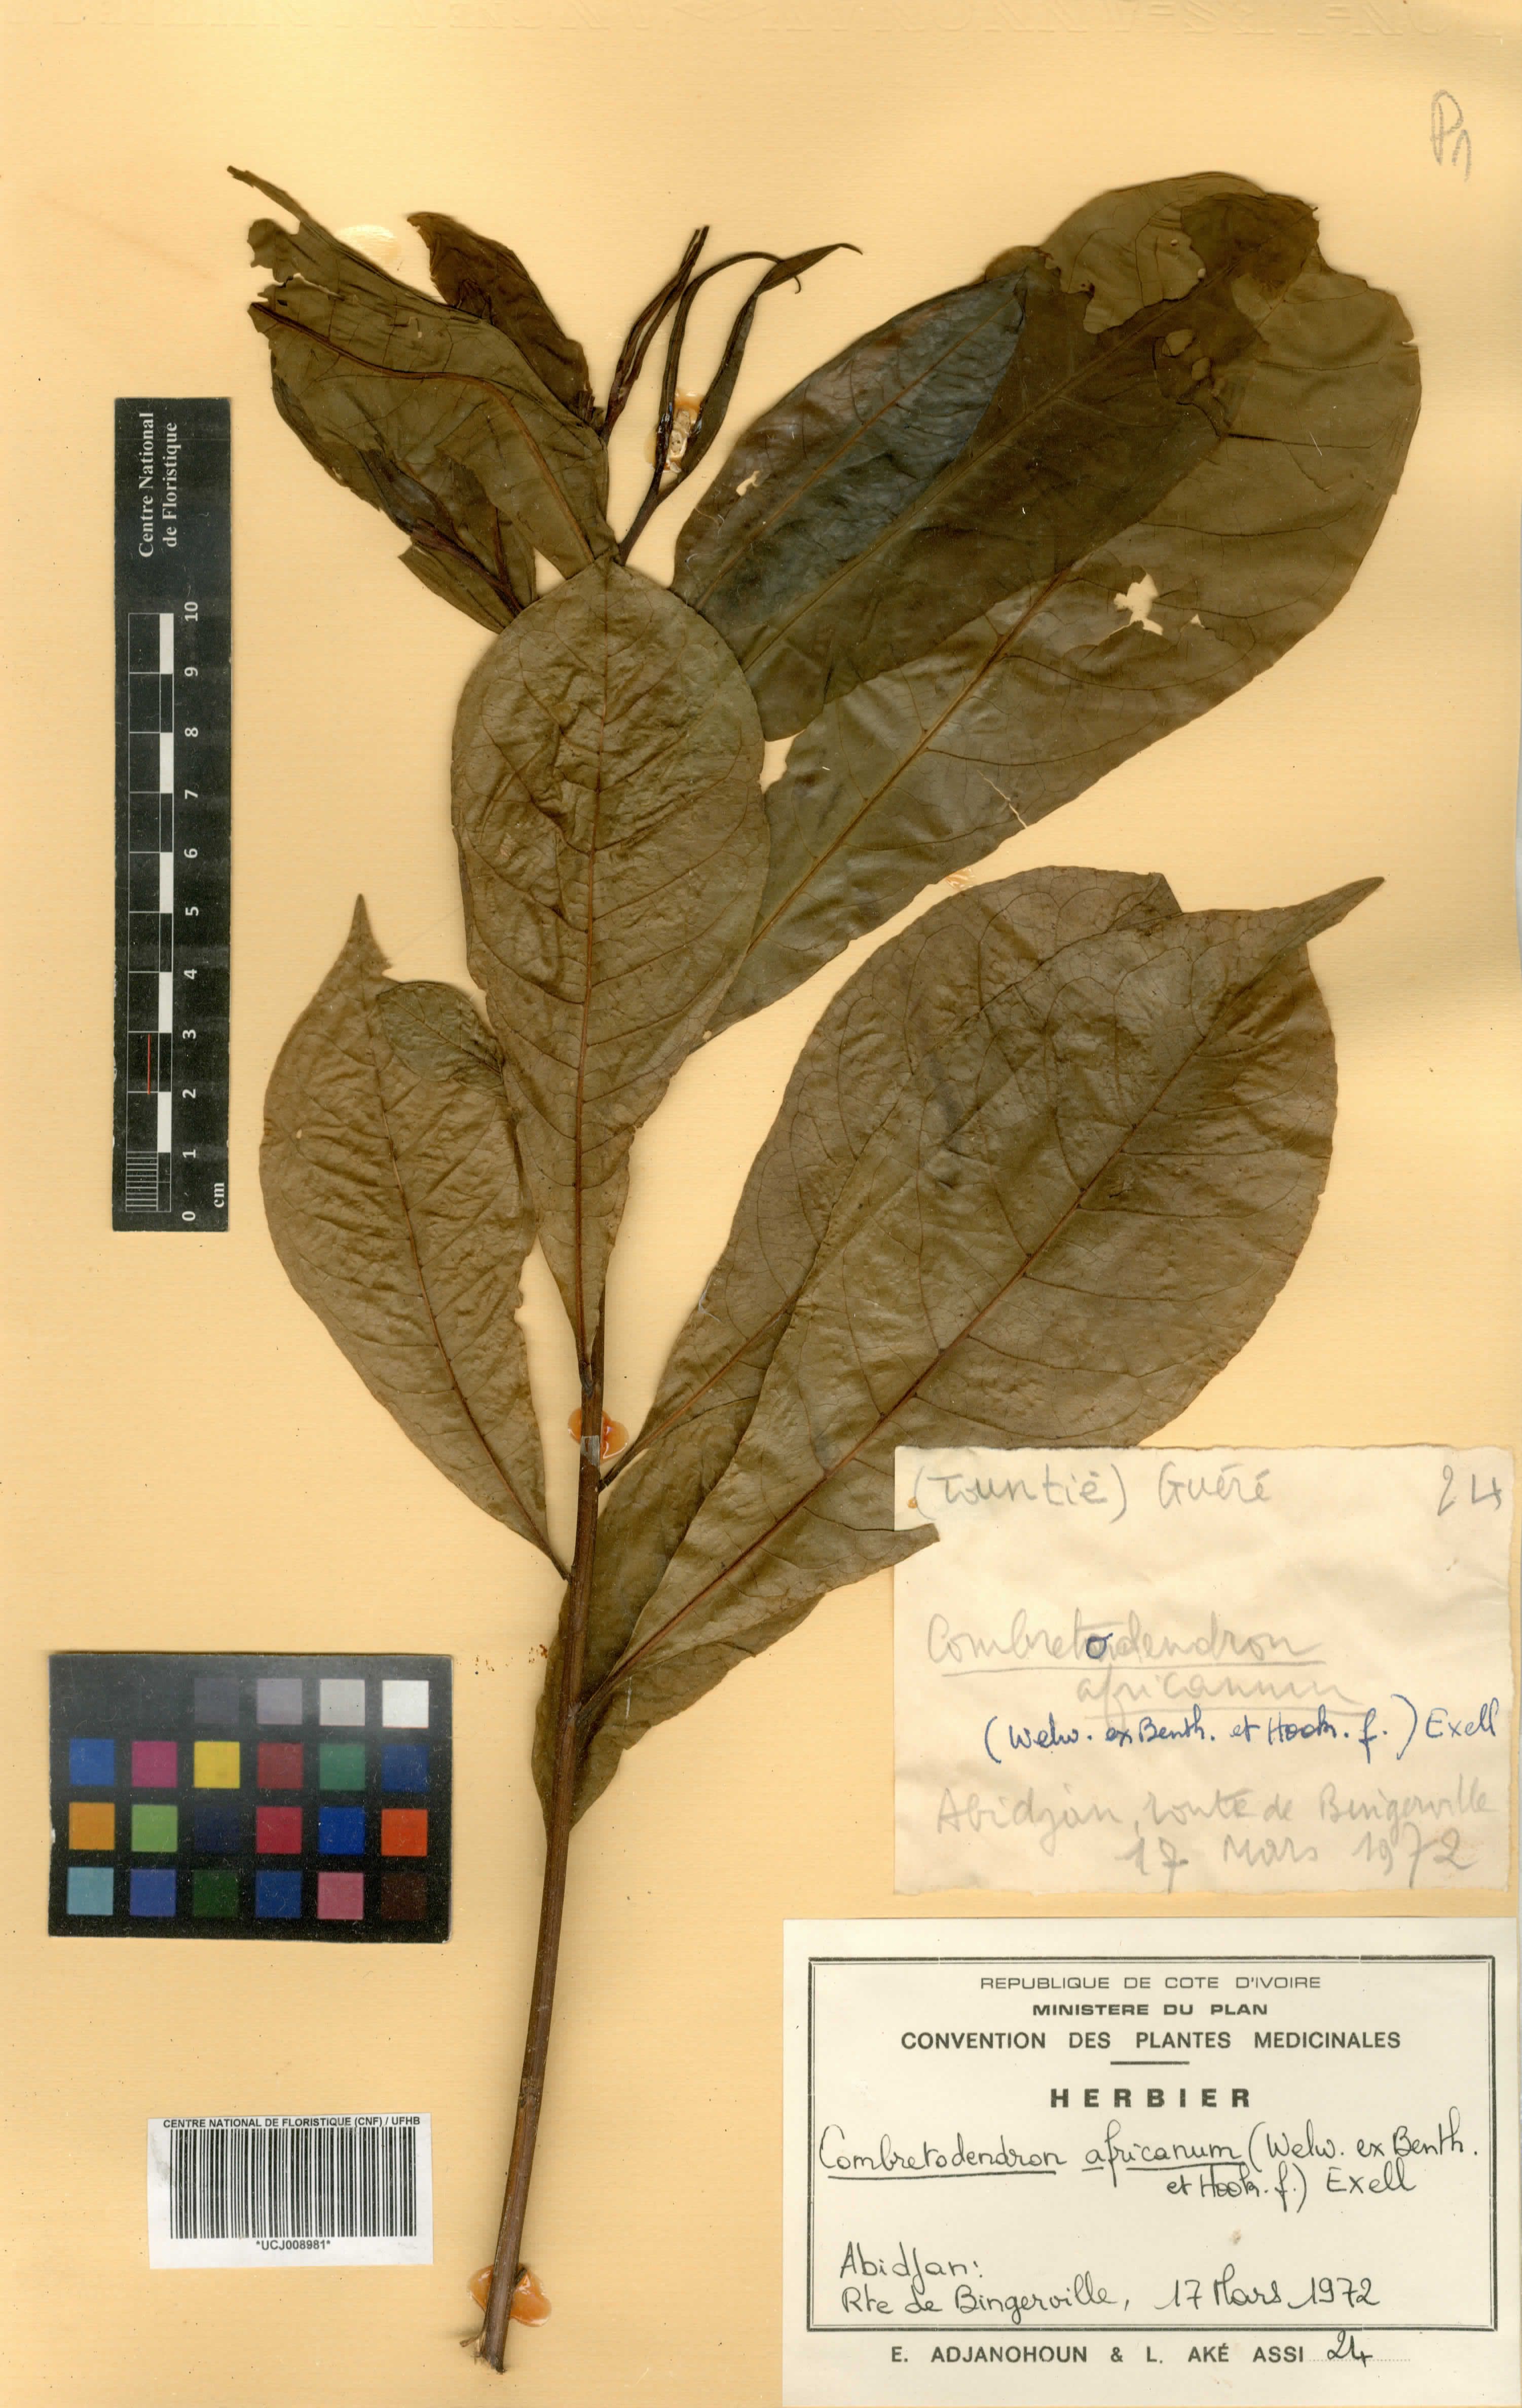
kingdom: Plantae
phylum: Tracheophyta
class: Magnoliopsida
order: Ericales
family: Lecythidaceae
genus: Petersianthus
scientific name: Petersianthus macrocarpus
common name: Essia
